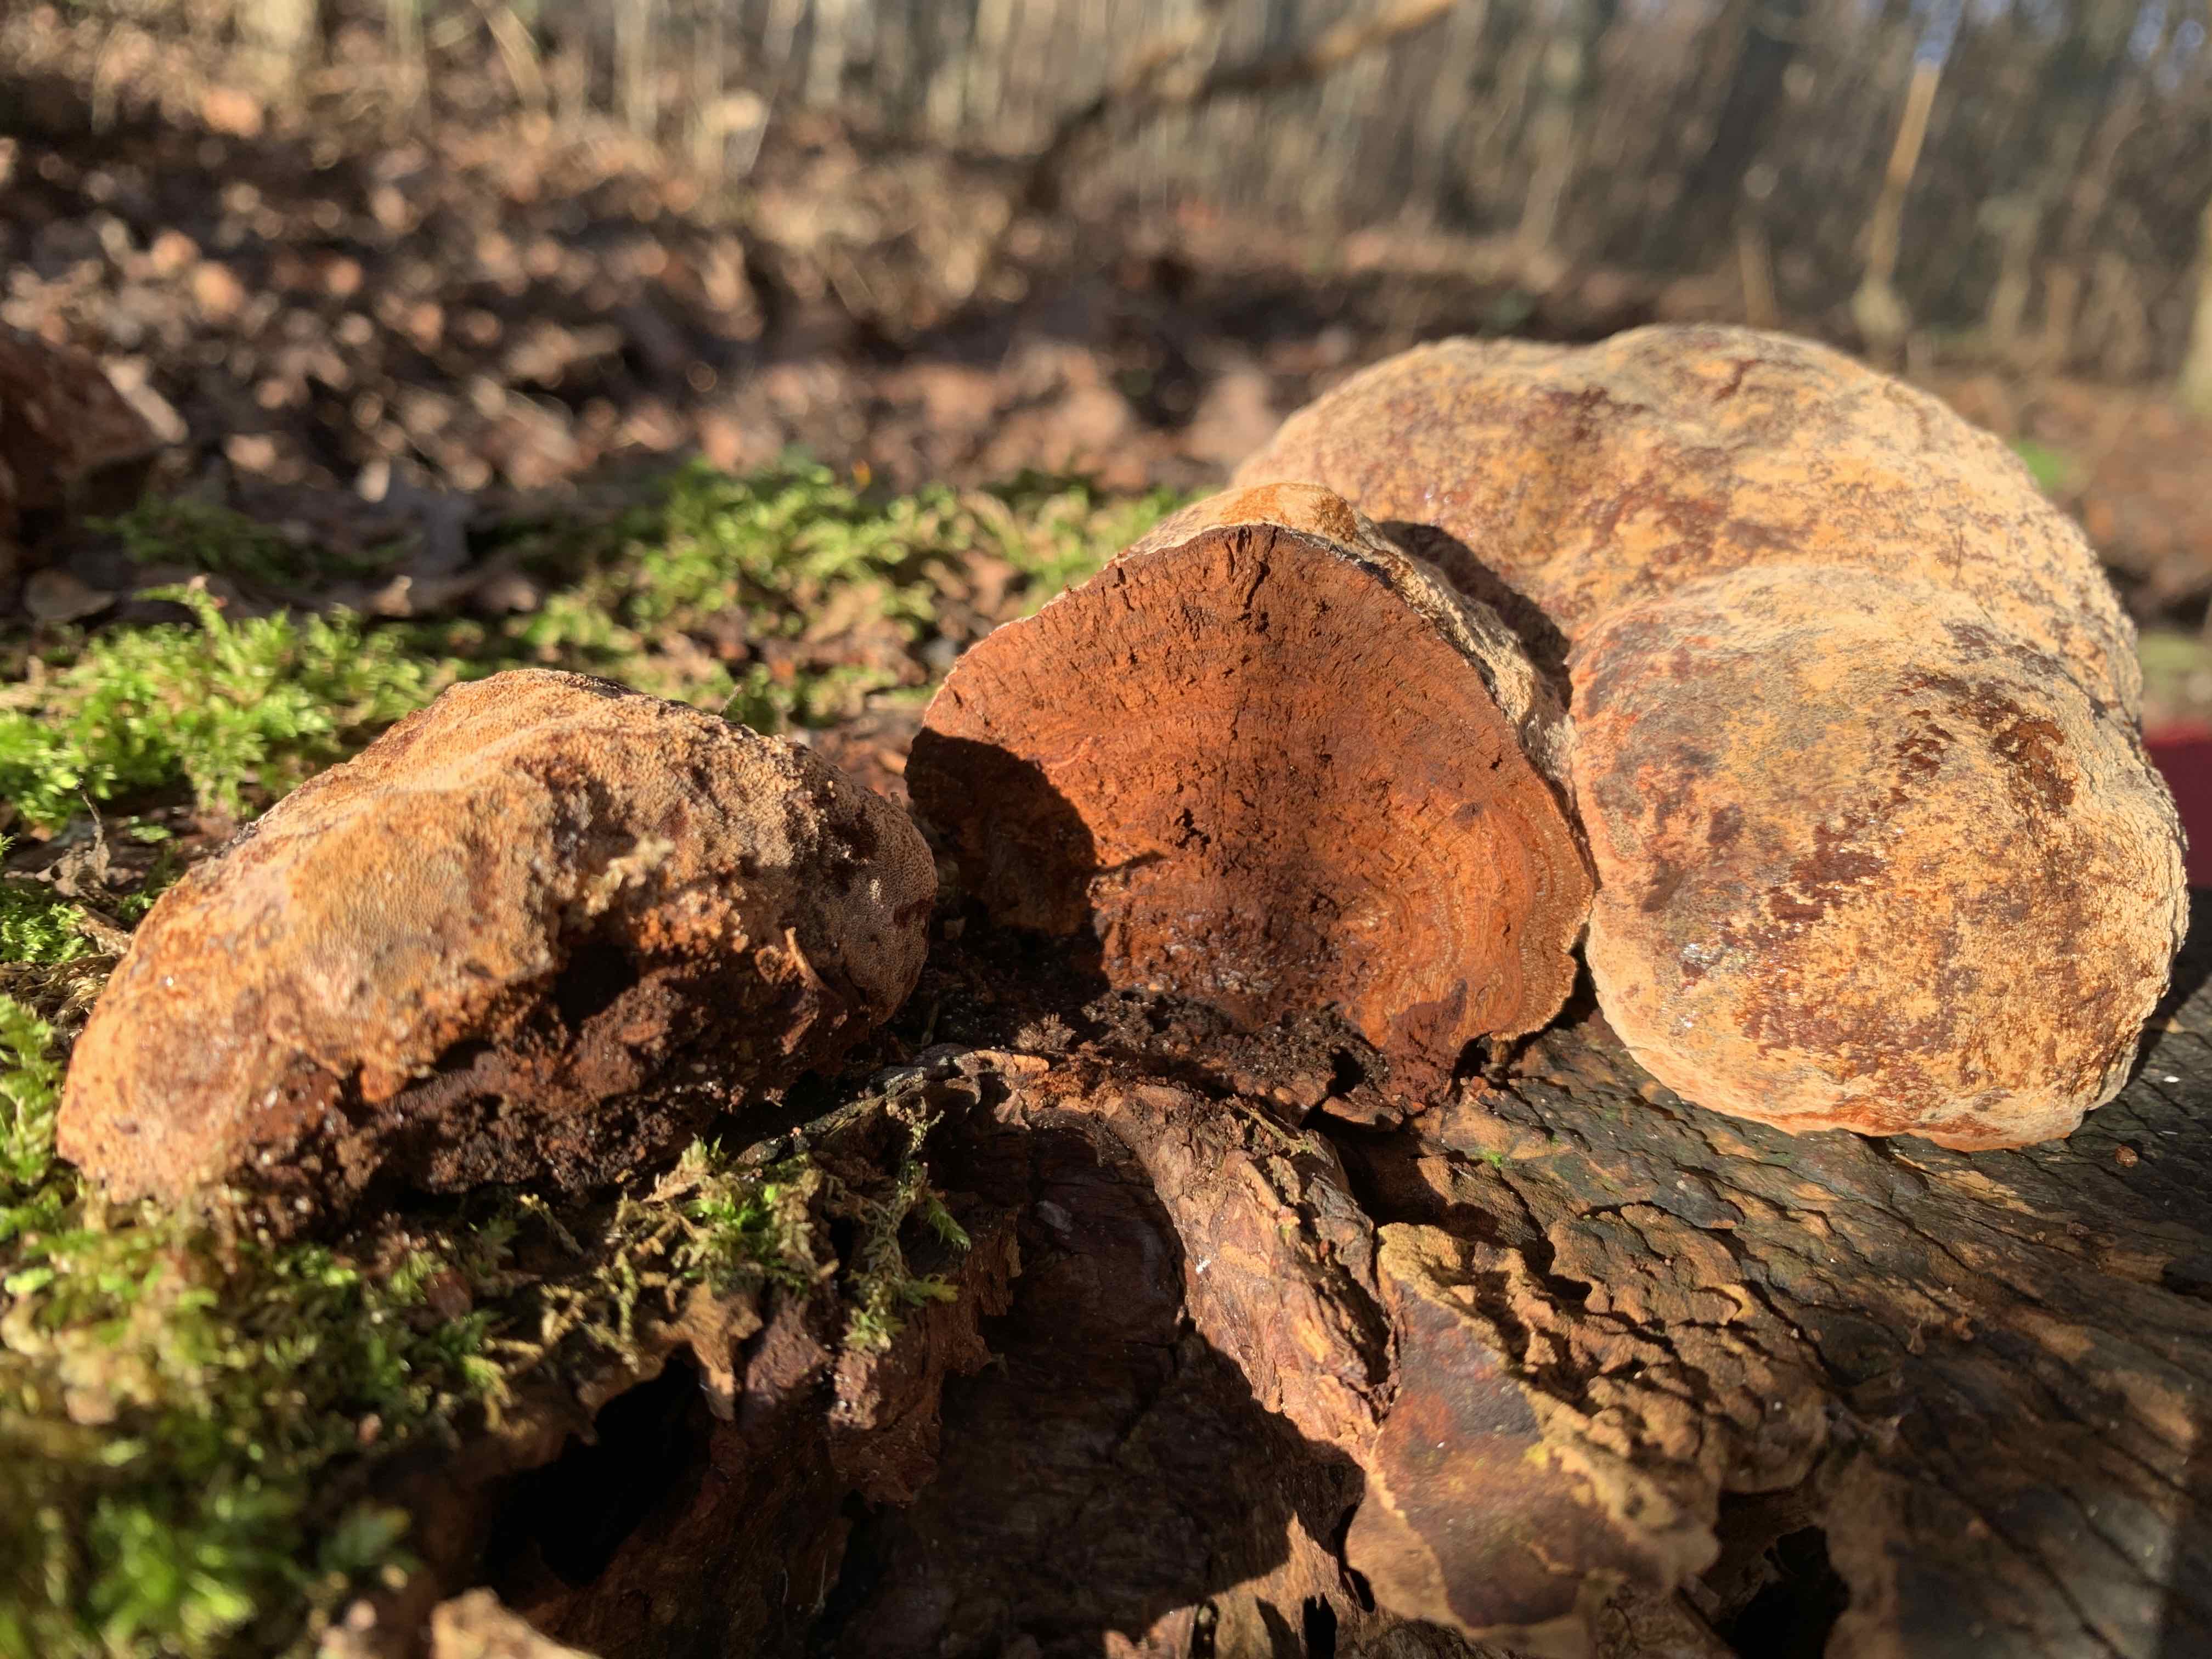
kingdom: Fungi
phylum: Basidiomycota
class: Agaricomycetes
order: Hymenochaetales
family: Hymenochaetaceae
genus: Phellinus
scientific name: Phellinus pomaceus
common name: blomme-ildporesvamp
